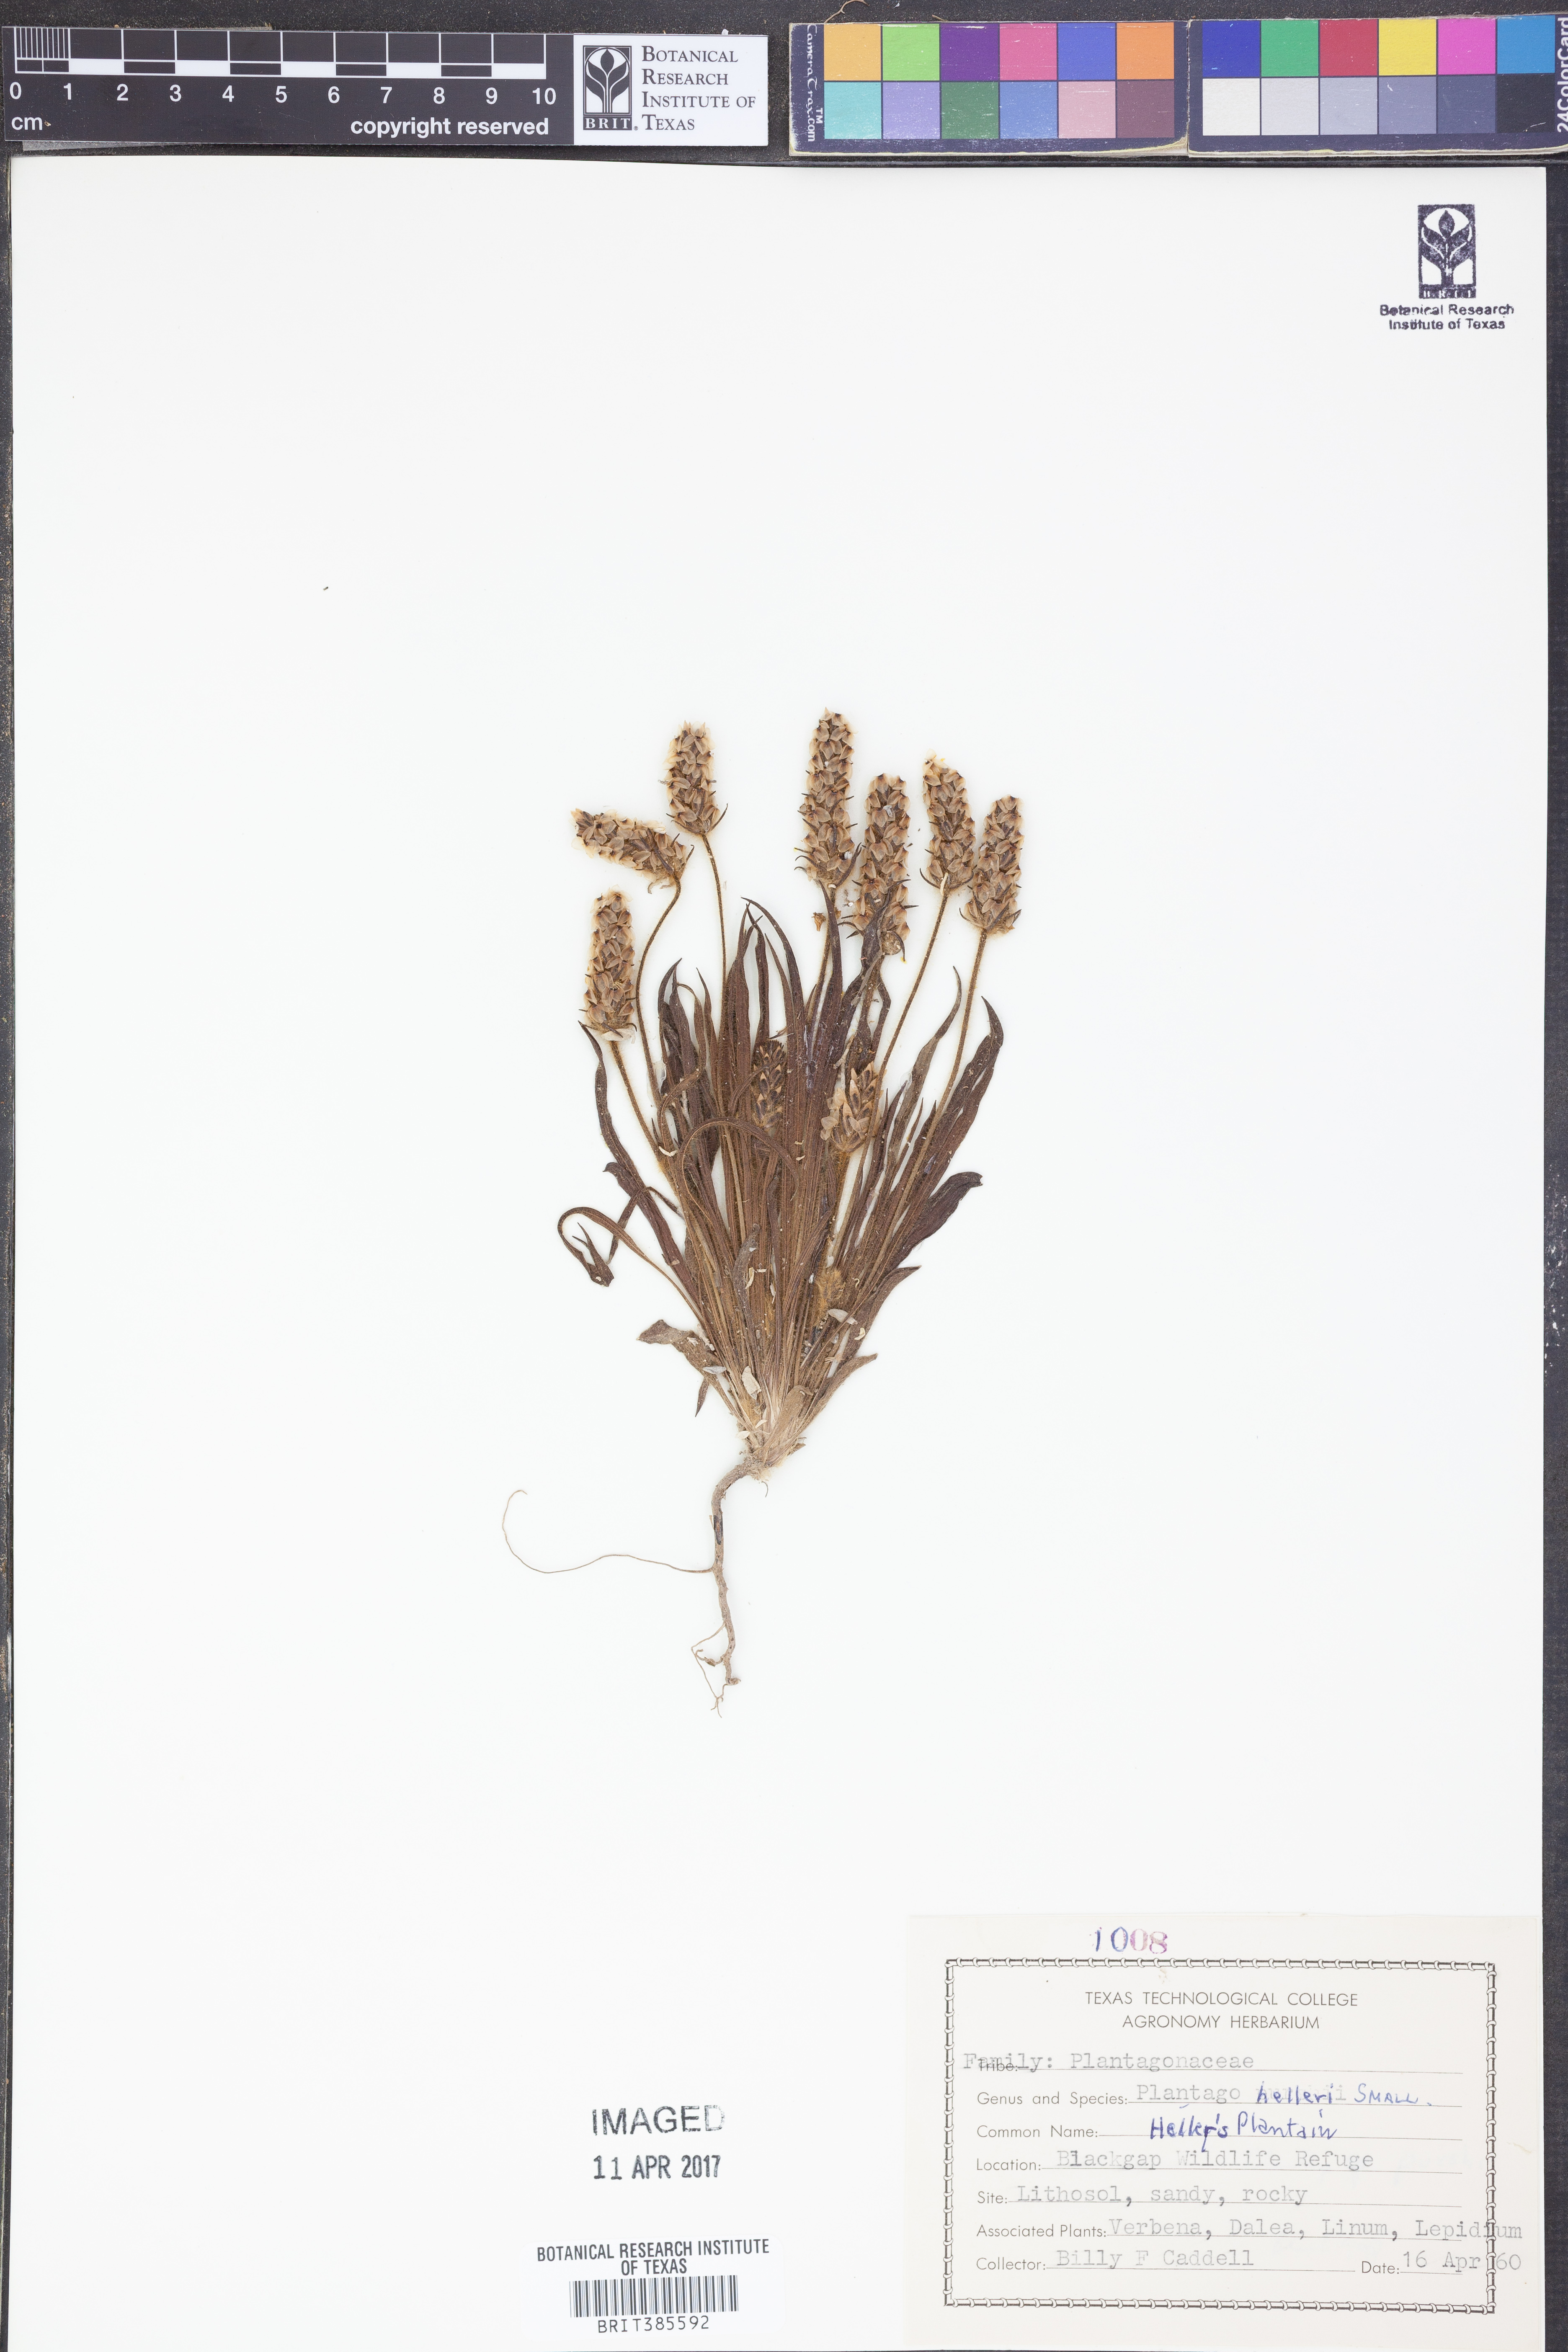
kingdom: Plantae
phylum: Tracheophyta
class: Magnoliopsida
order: Lamiales
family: Plantaginaceae
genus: Plantago
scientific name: Plantago helleri
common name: Heller's plantain
